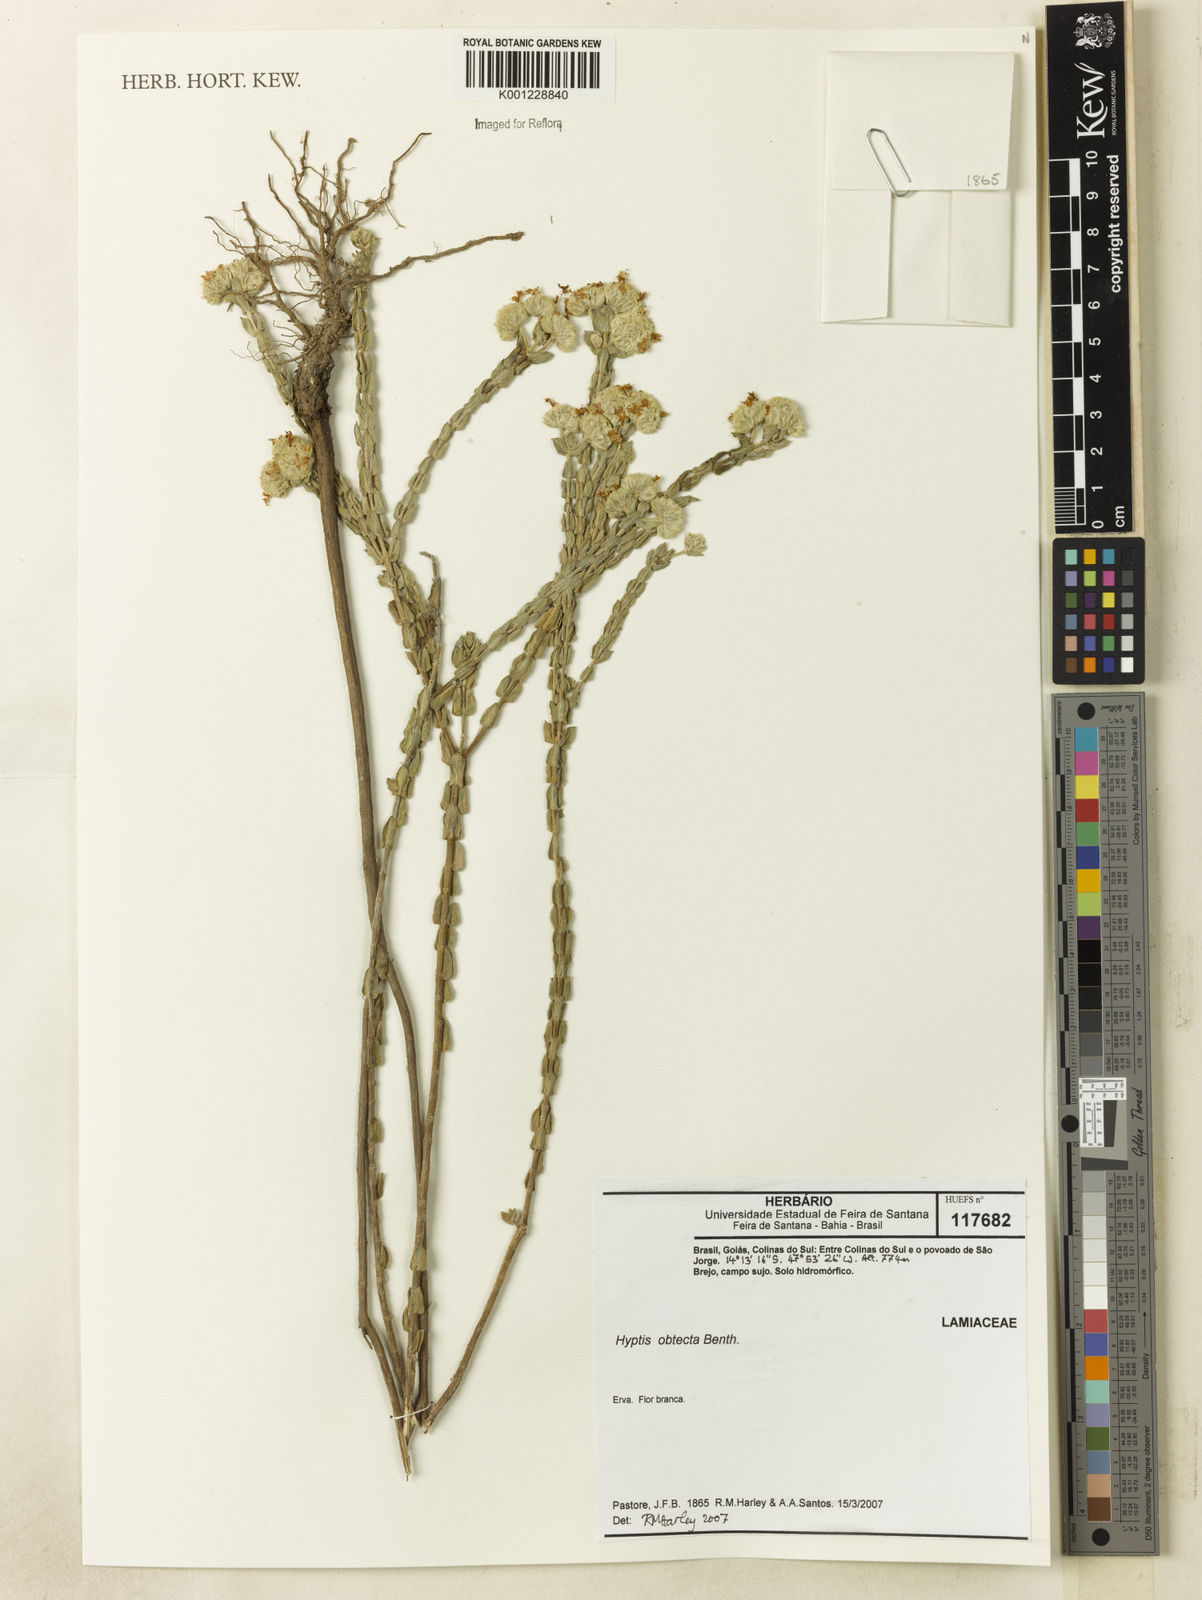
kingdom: Plantae
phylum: Tracheophyta
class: Magnoliopsida
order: Lamiales
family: Lamiaceae
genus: Hyptis
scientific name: Hyptis obtecta
